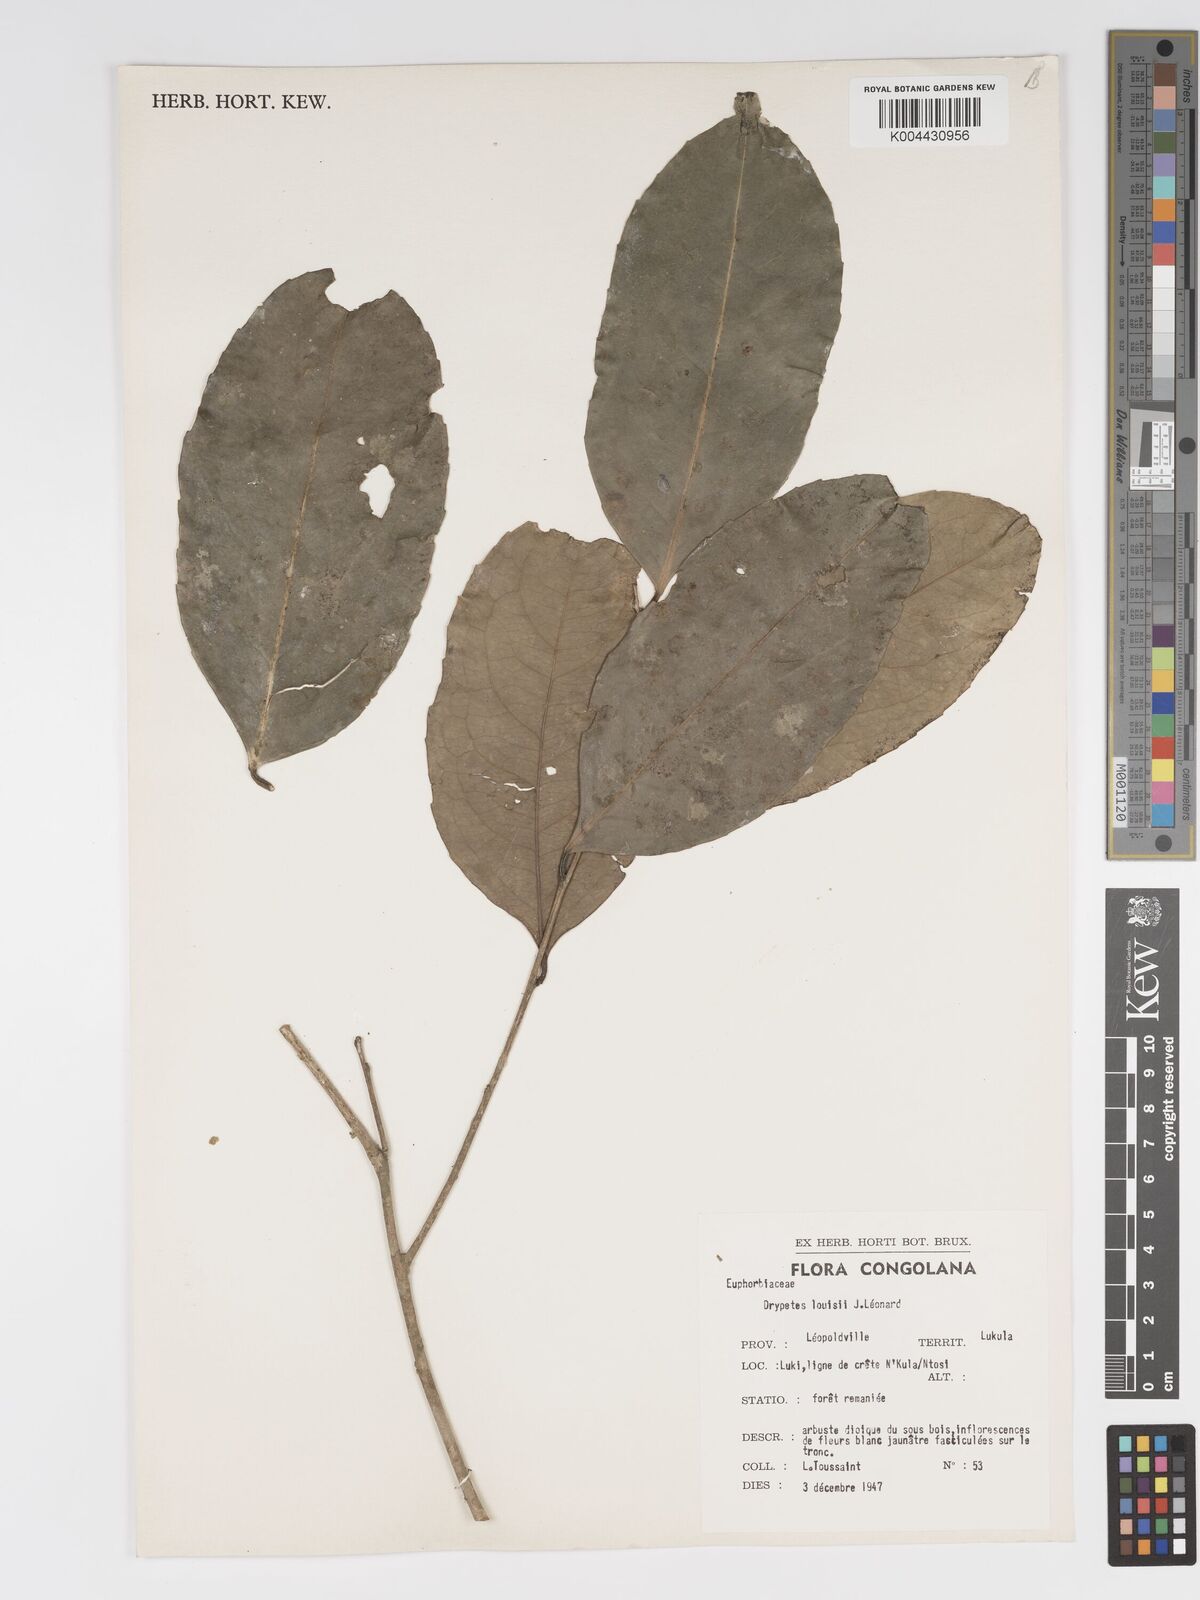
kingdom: Plantae
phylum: Tracheophyta
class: Magnoliopsida
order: Malpighiales
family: Putranjivaceae
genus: Drypetes
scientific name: Drypetes
